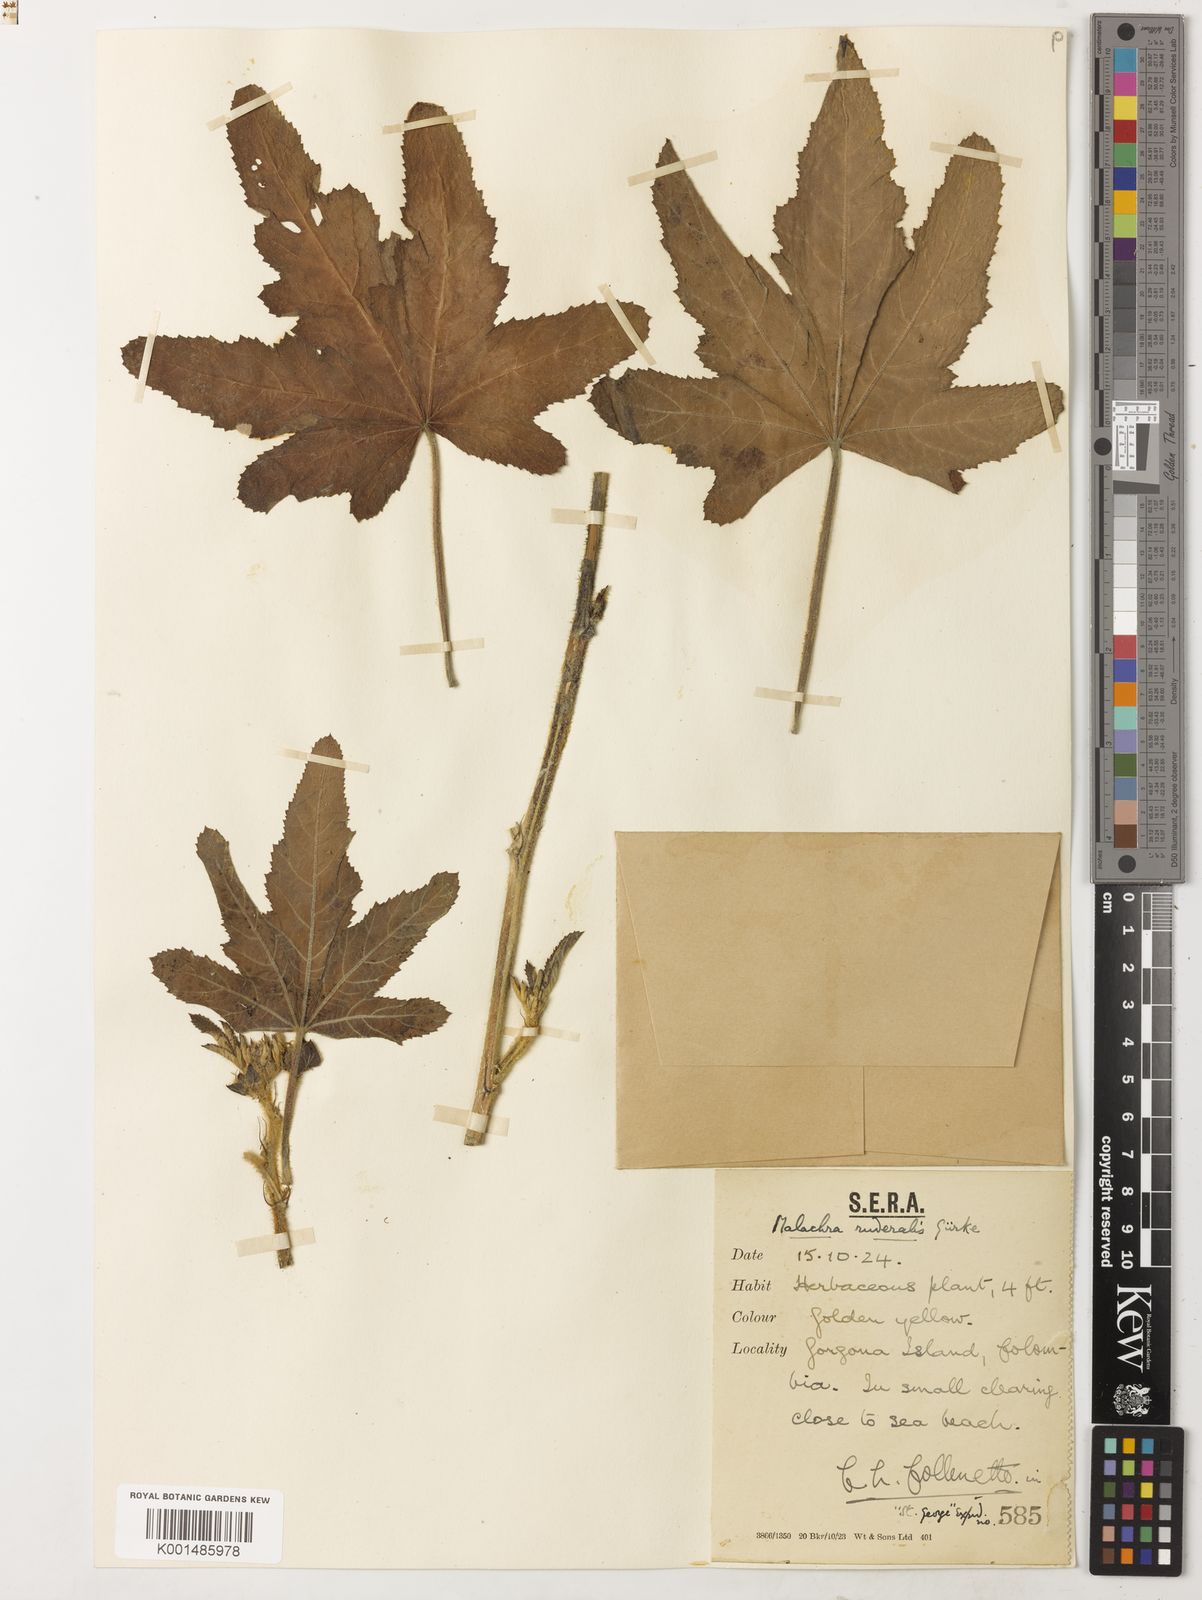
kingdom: Plantae
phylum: Tracheophyta
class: Magnoliopsida
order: Malvales
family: Malvaceae
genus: Malachra
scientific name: Malachra ruderalis
